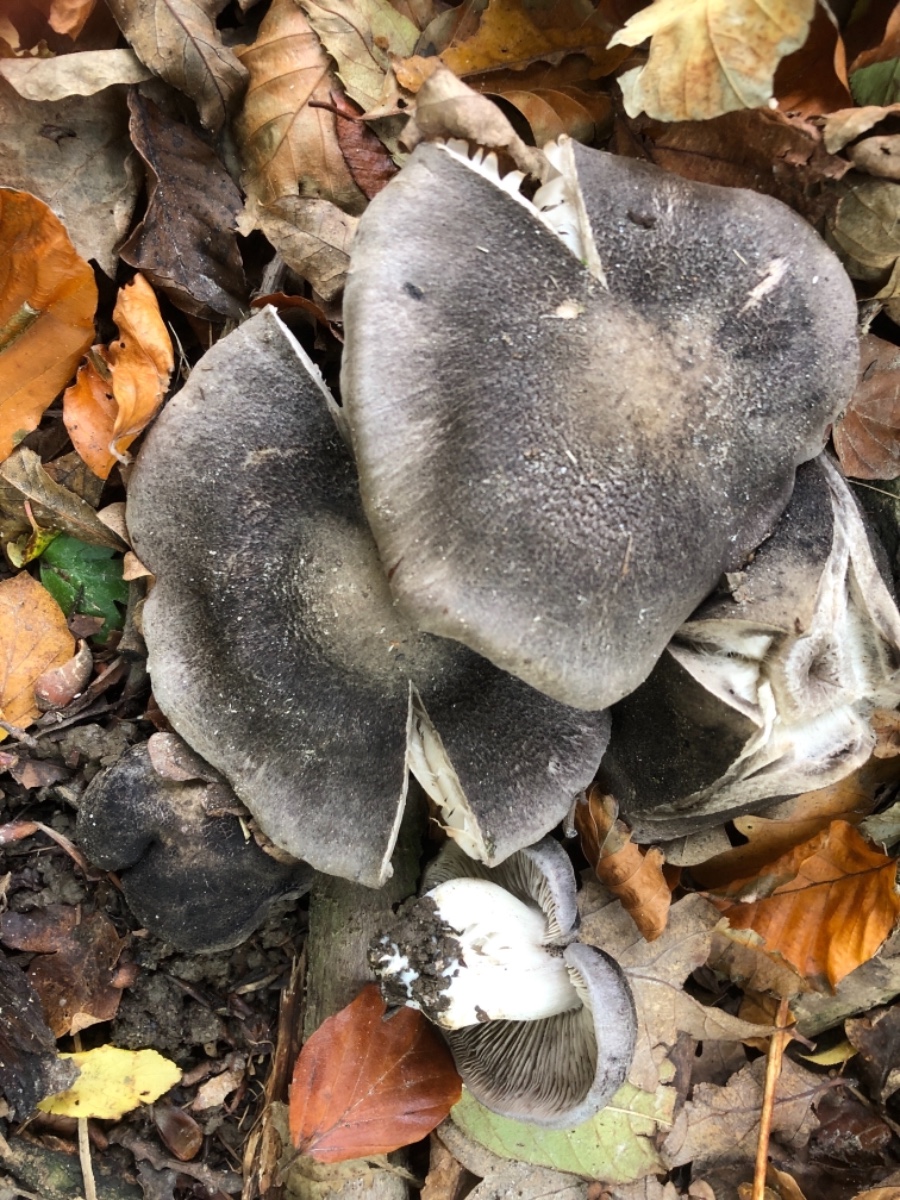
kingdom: Fungi
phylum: Basidiomycota
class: Agaricomycetes
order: Agaricales
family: Tricholomataceae
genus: Tricholoma
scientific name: Tricholoma orirubens
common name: rødbladet ridderhat
